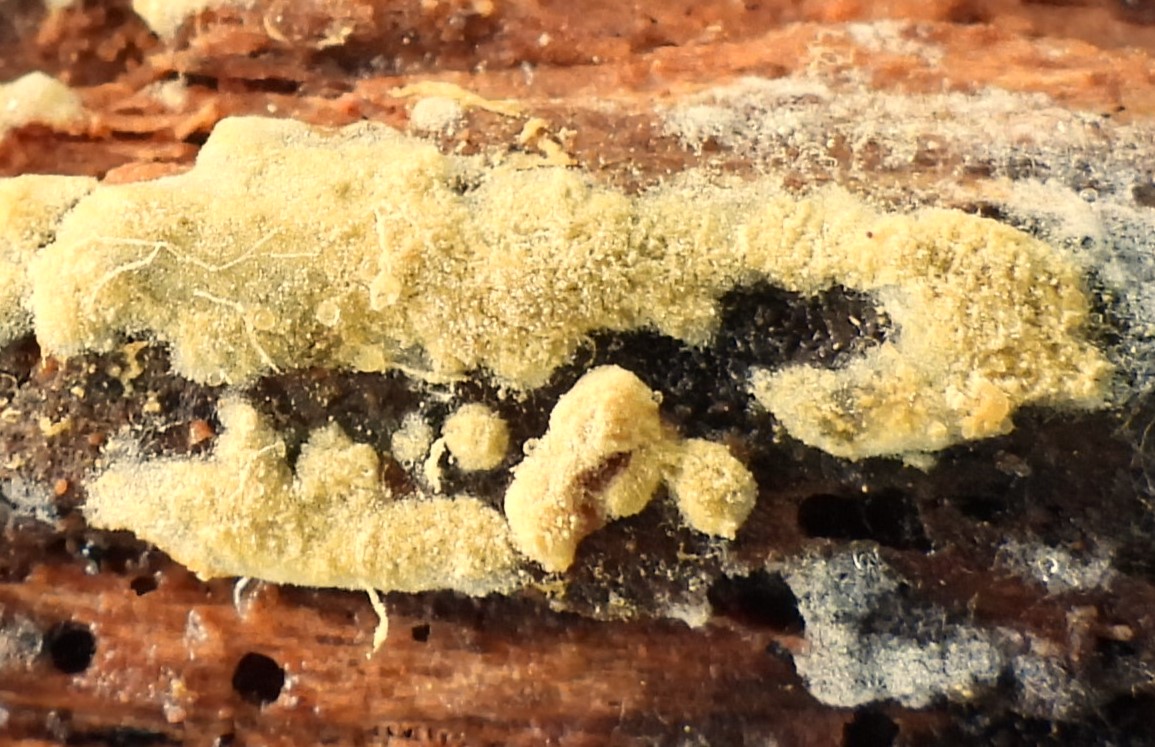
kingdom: Fungi
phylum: Basidiomycota
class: Agaricomycetes
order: Cantharellales
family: Botryobasidiaceae
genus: Botryobasidium
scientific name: Botryobasidium aureum
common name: gylden spindhinde
